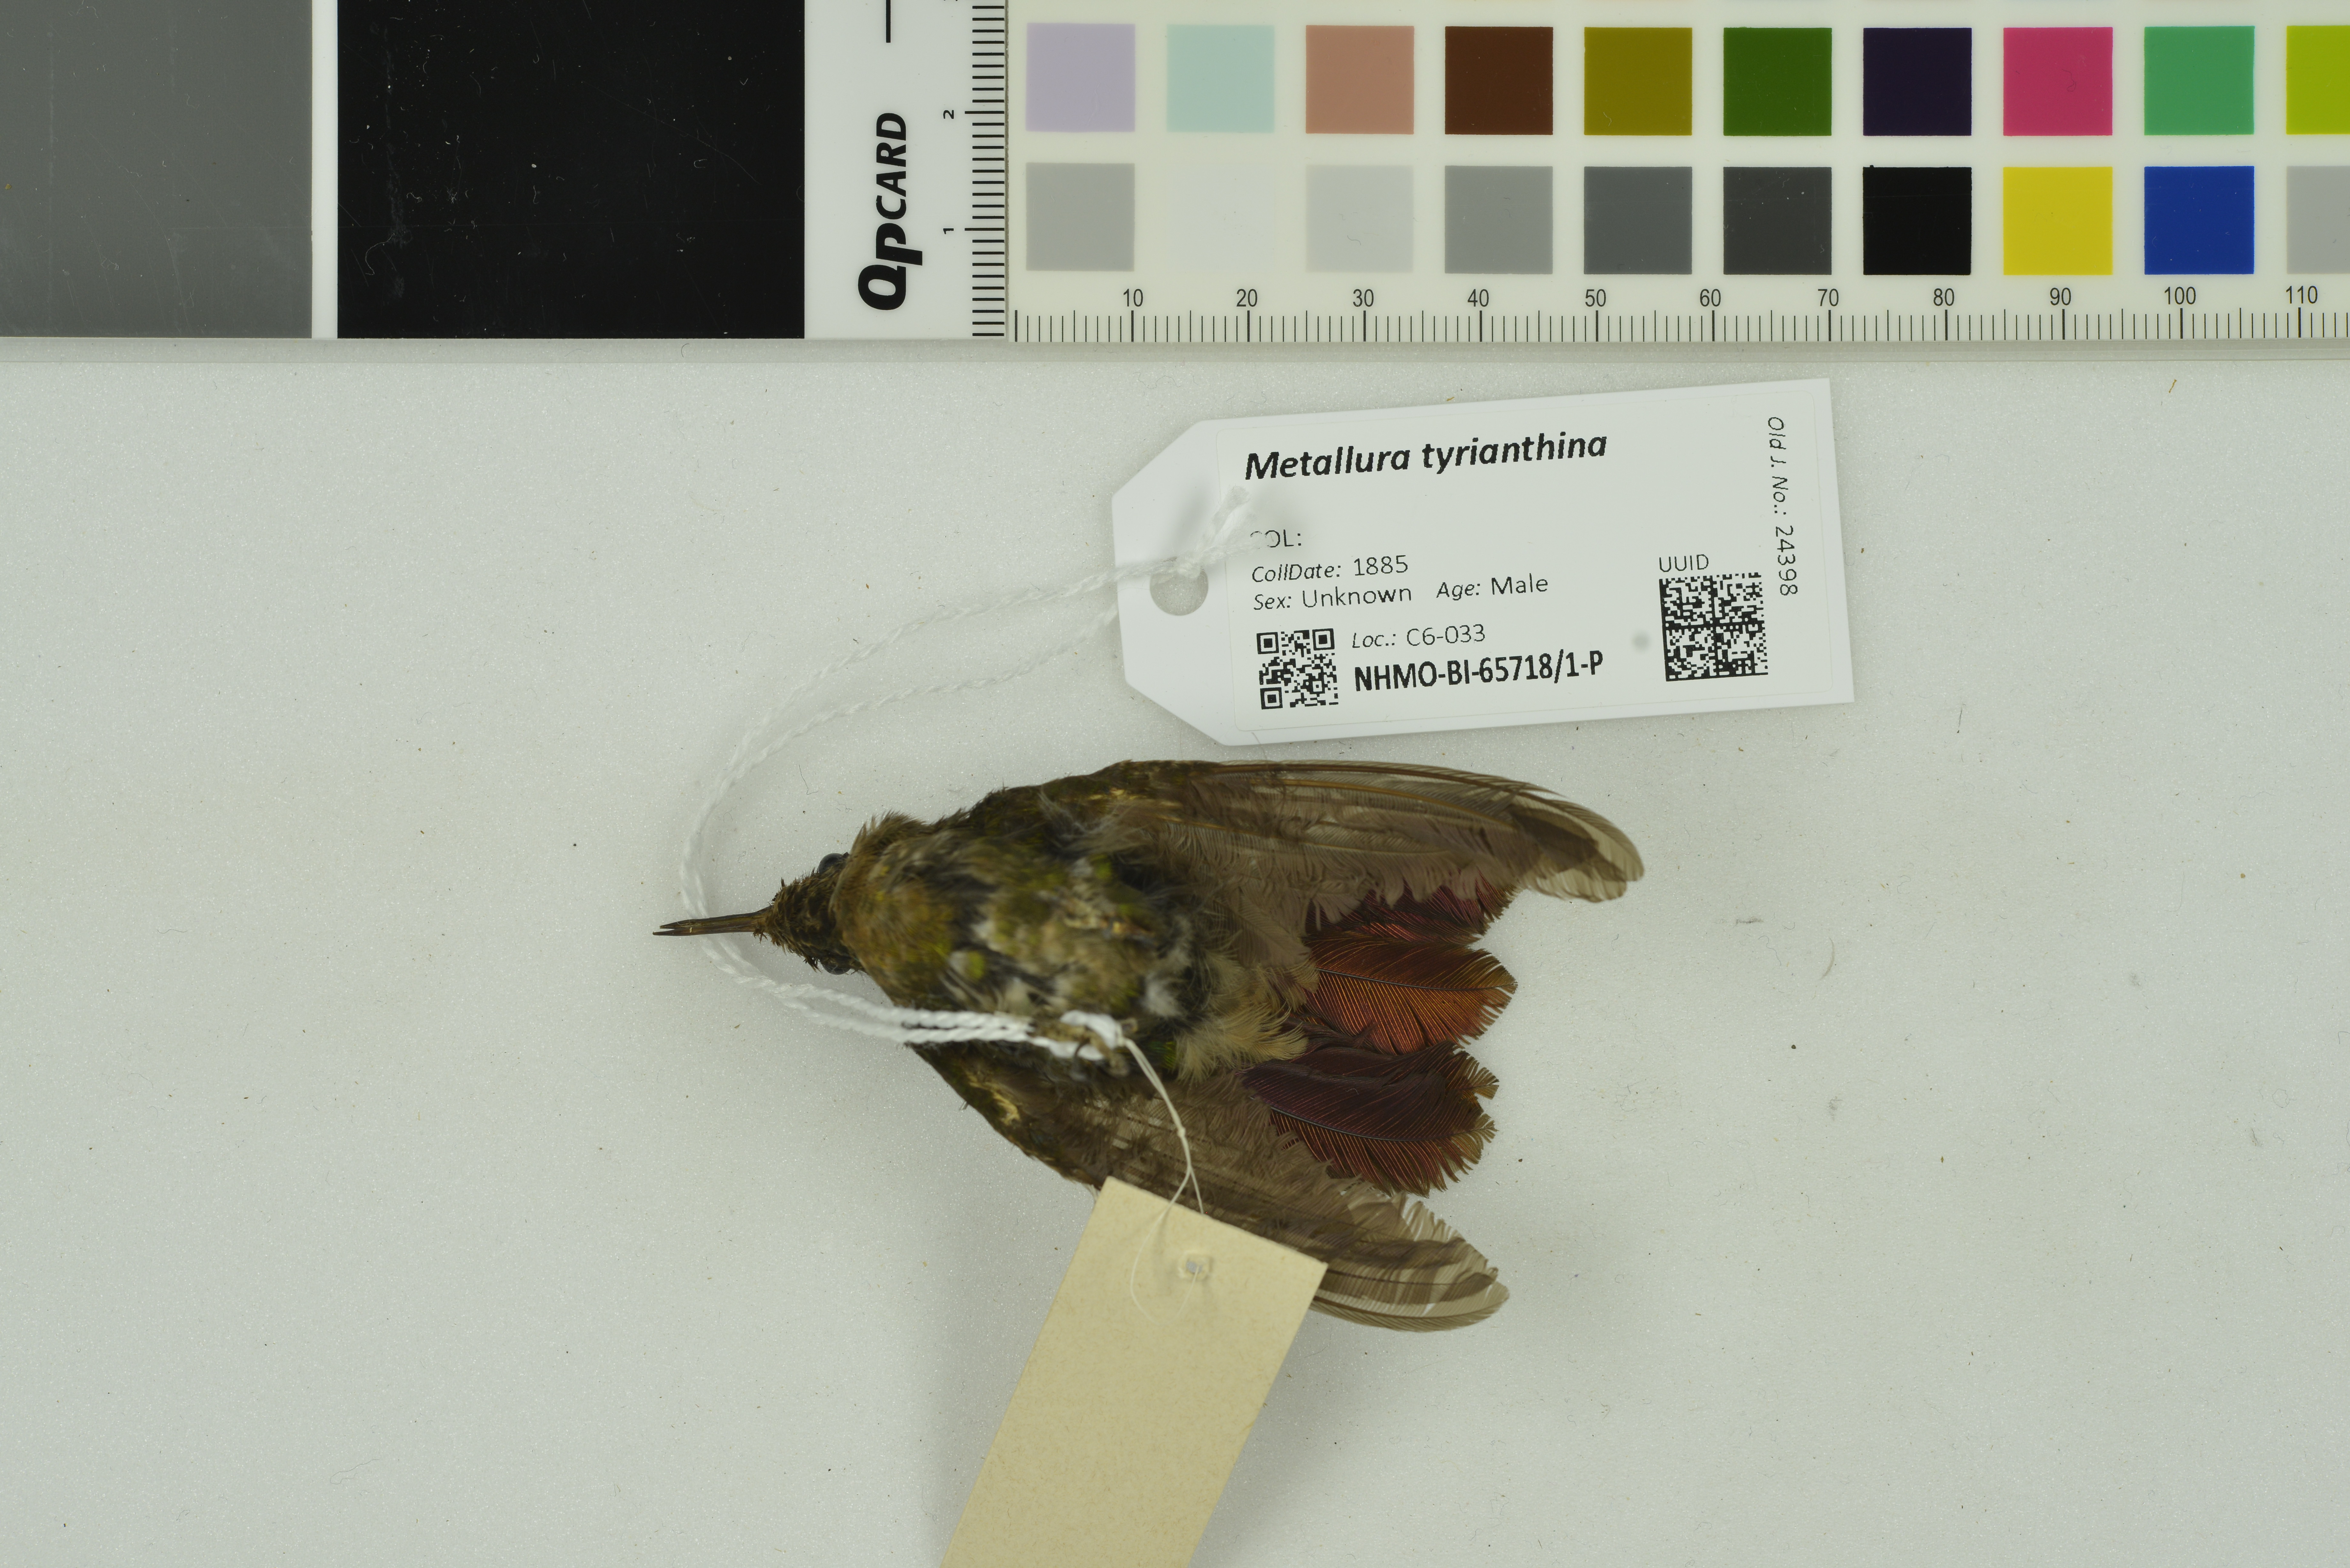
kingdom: Animalia
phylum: Chordata
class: Aves
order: Apodiformes
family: Trochilidae
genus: Metallura
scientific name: Metallura tyrianthina
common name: Tyrian metaltail
